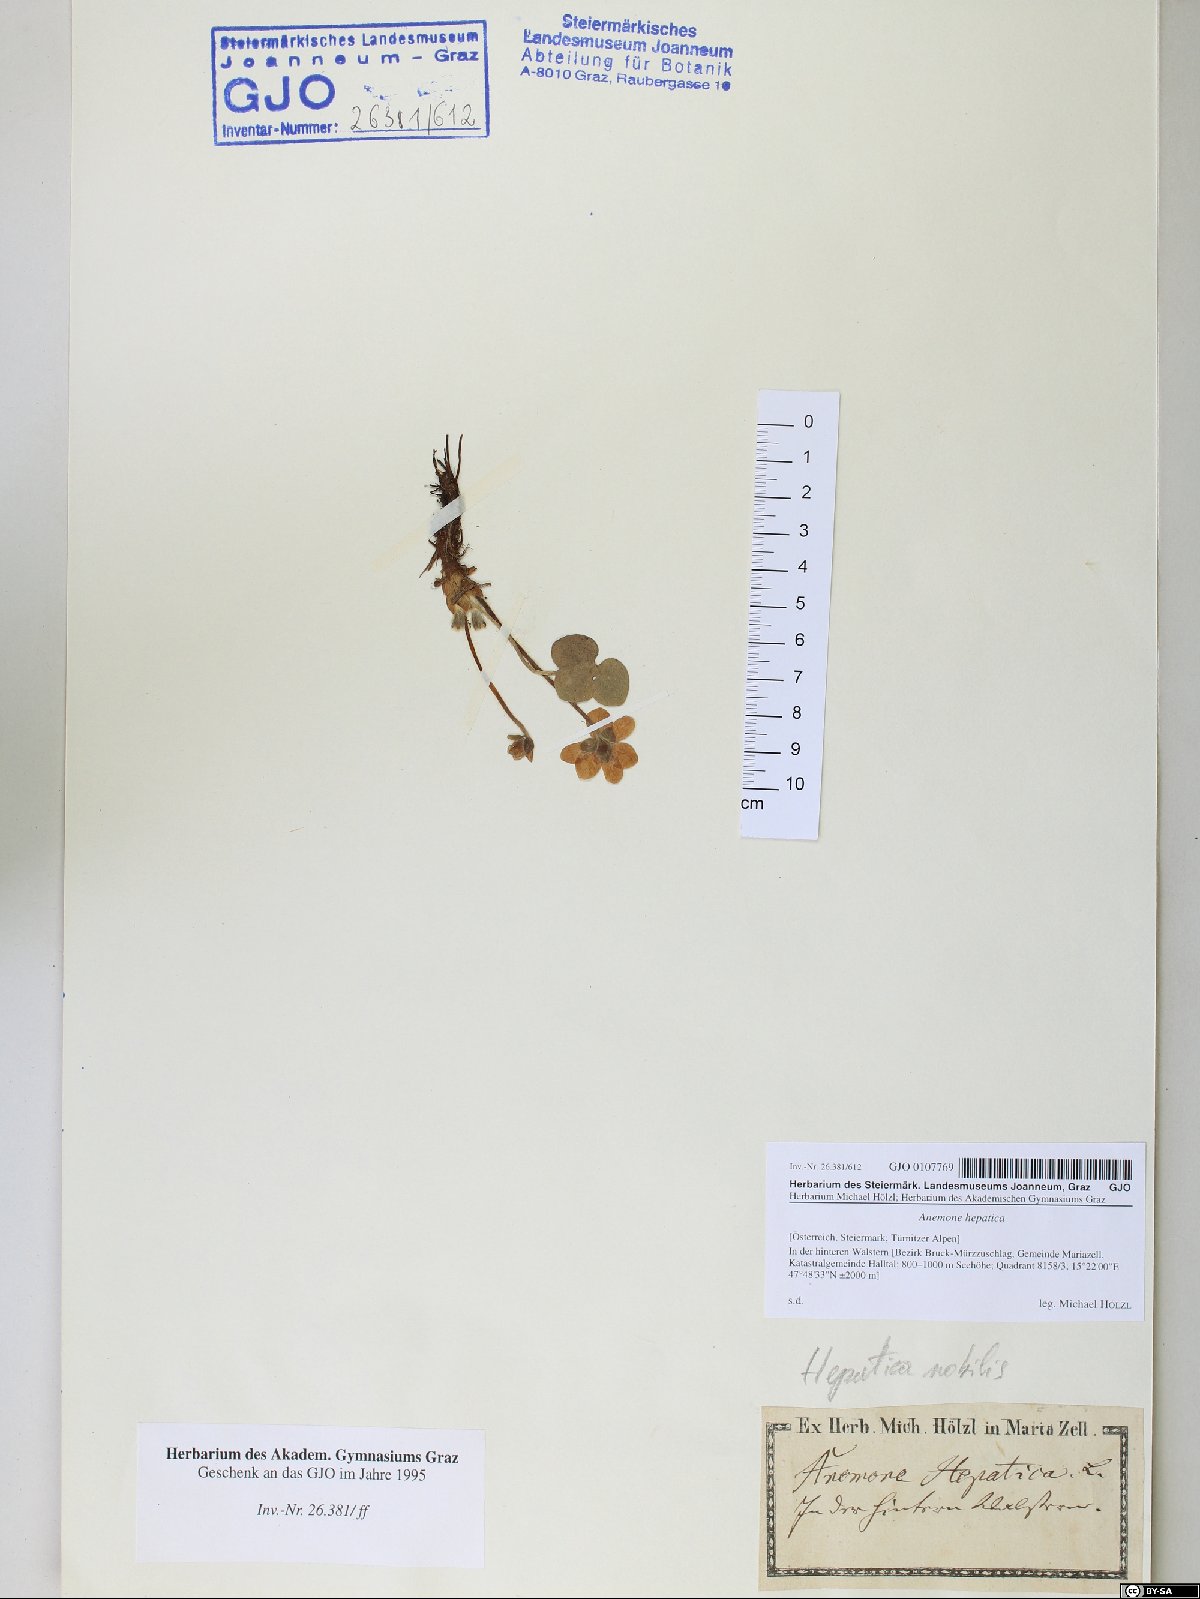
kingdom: Plantae
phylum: Tracheophyta
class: Magnoliopsida
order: Ranunculales
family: Ranunculaceae
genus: Hepatica
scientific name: Hepatica nobilis
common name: Liverleaf
